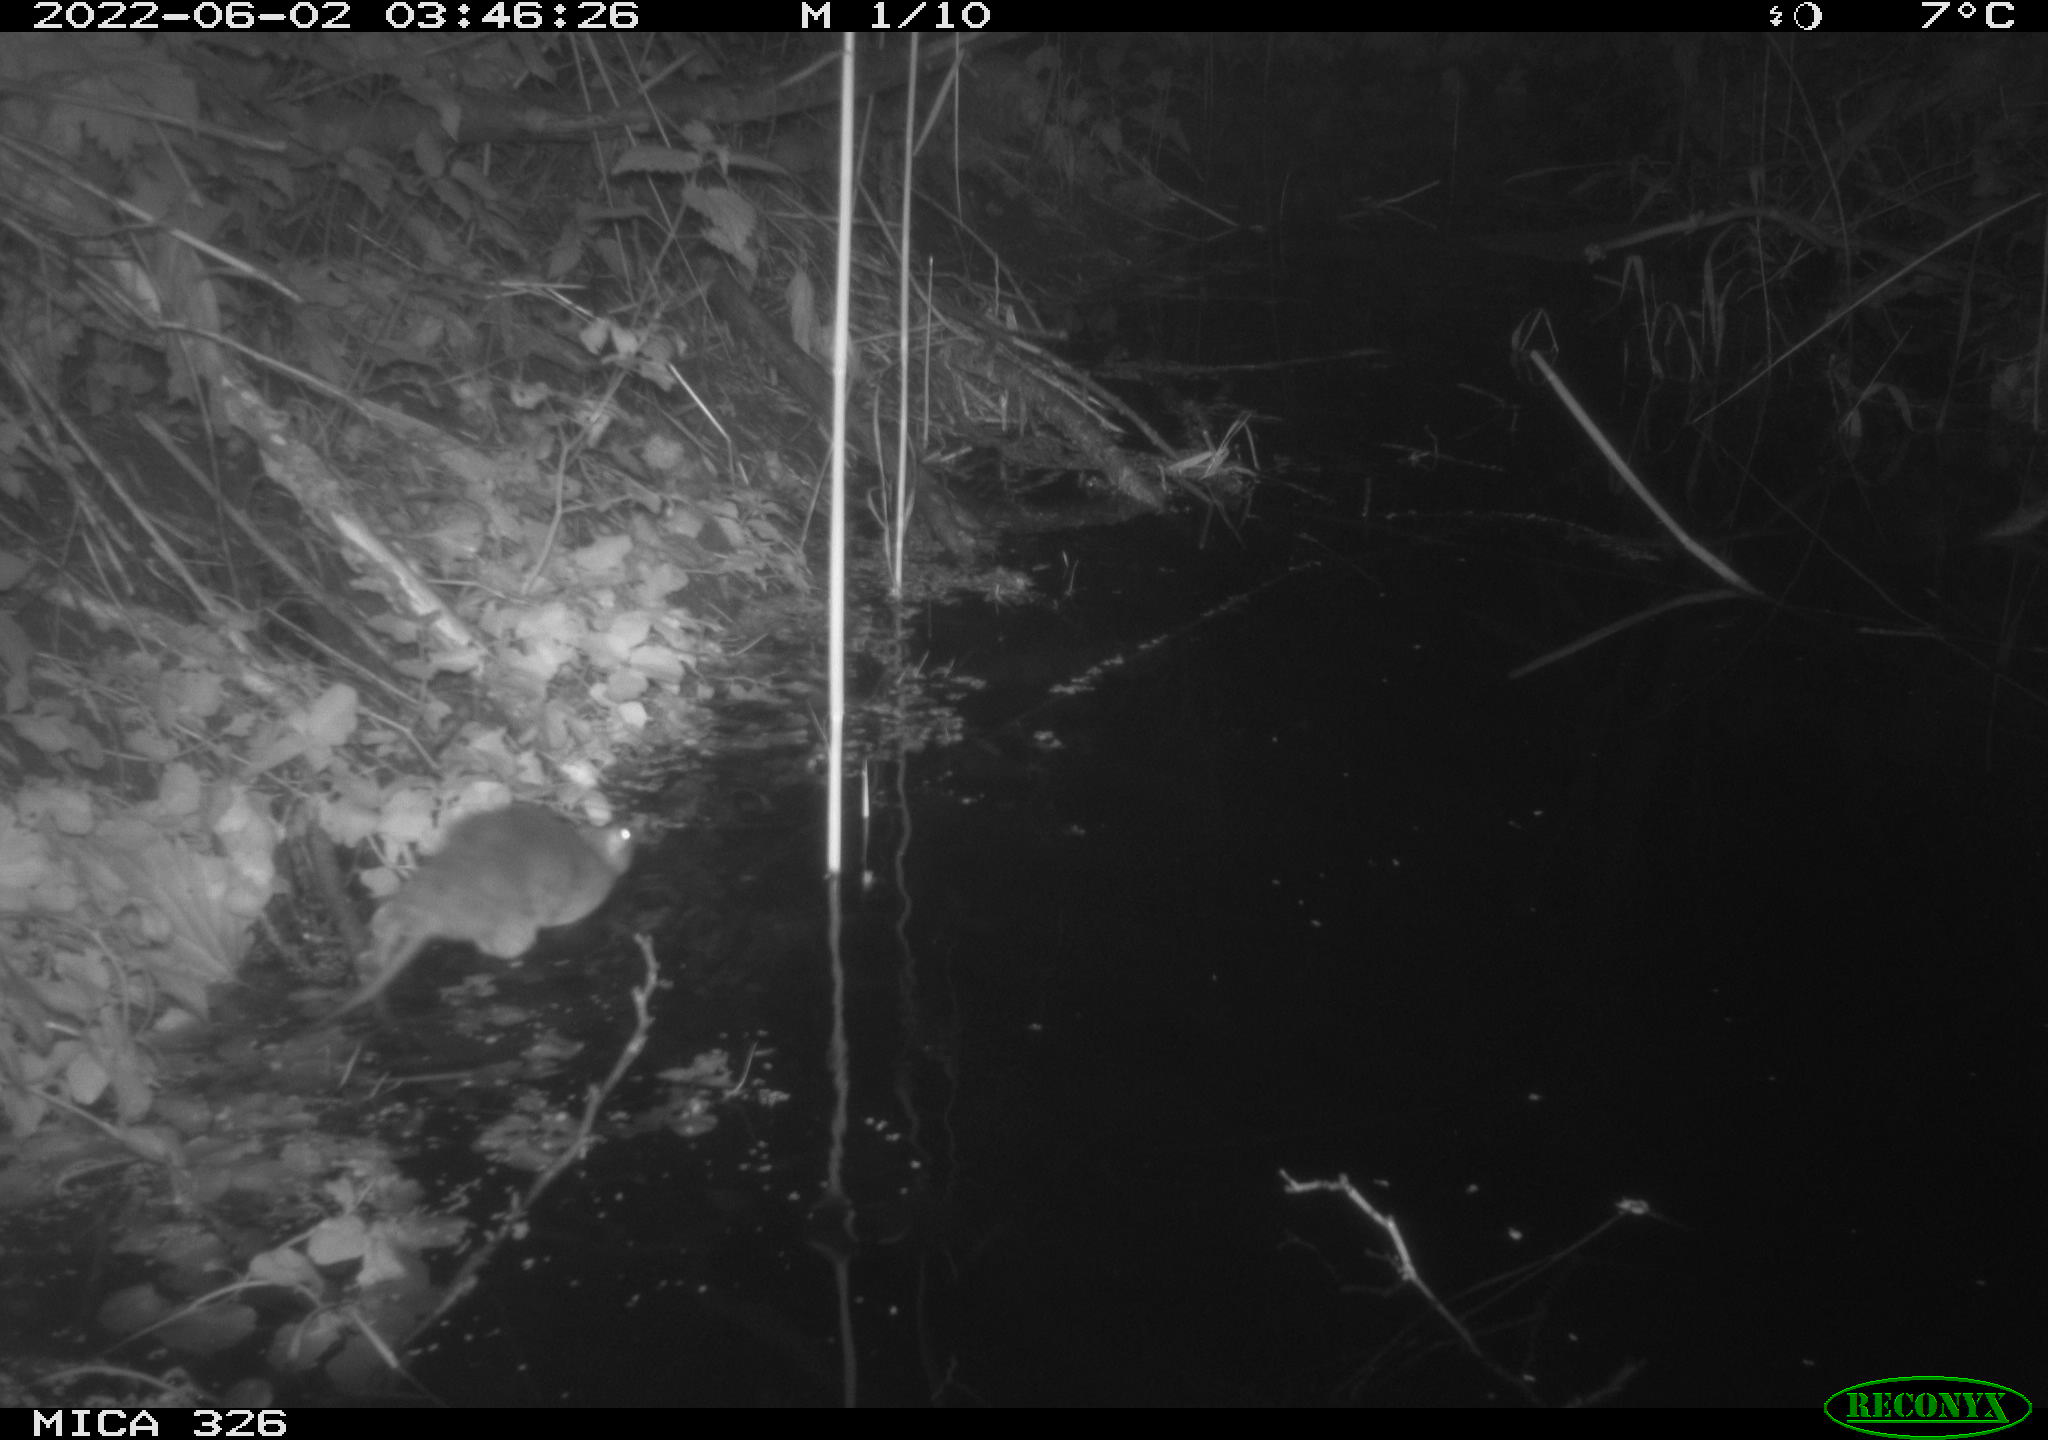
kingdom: Animalia
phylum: Chordata
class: Mammalia
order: Rodentia
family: Muridae
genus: Rattus
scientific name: Rattus norvegicus
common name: Brown rat
